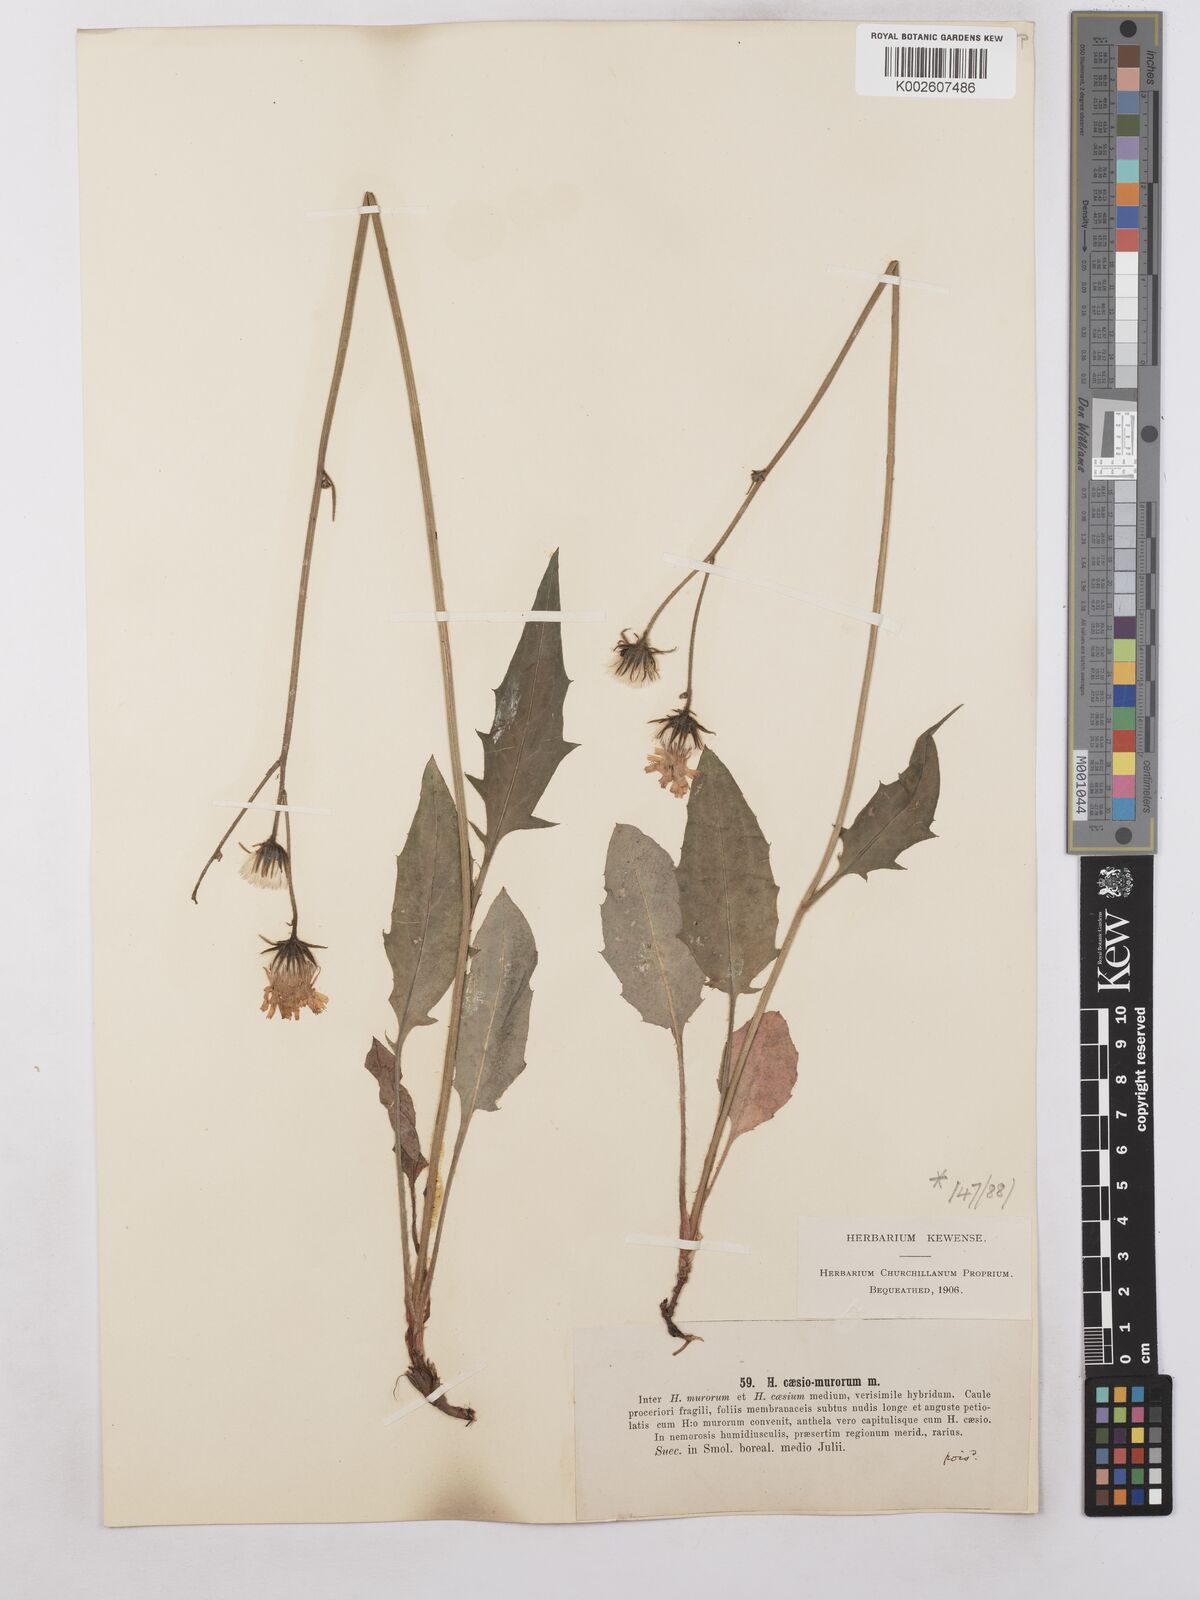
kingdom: Plantae
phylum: Tracheophyta
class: Magnoliopsida
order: Asterales
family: Asteraceae
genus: Hieracium
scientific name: Hieracium caesium
